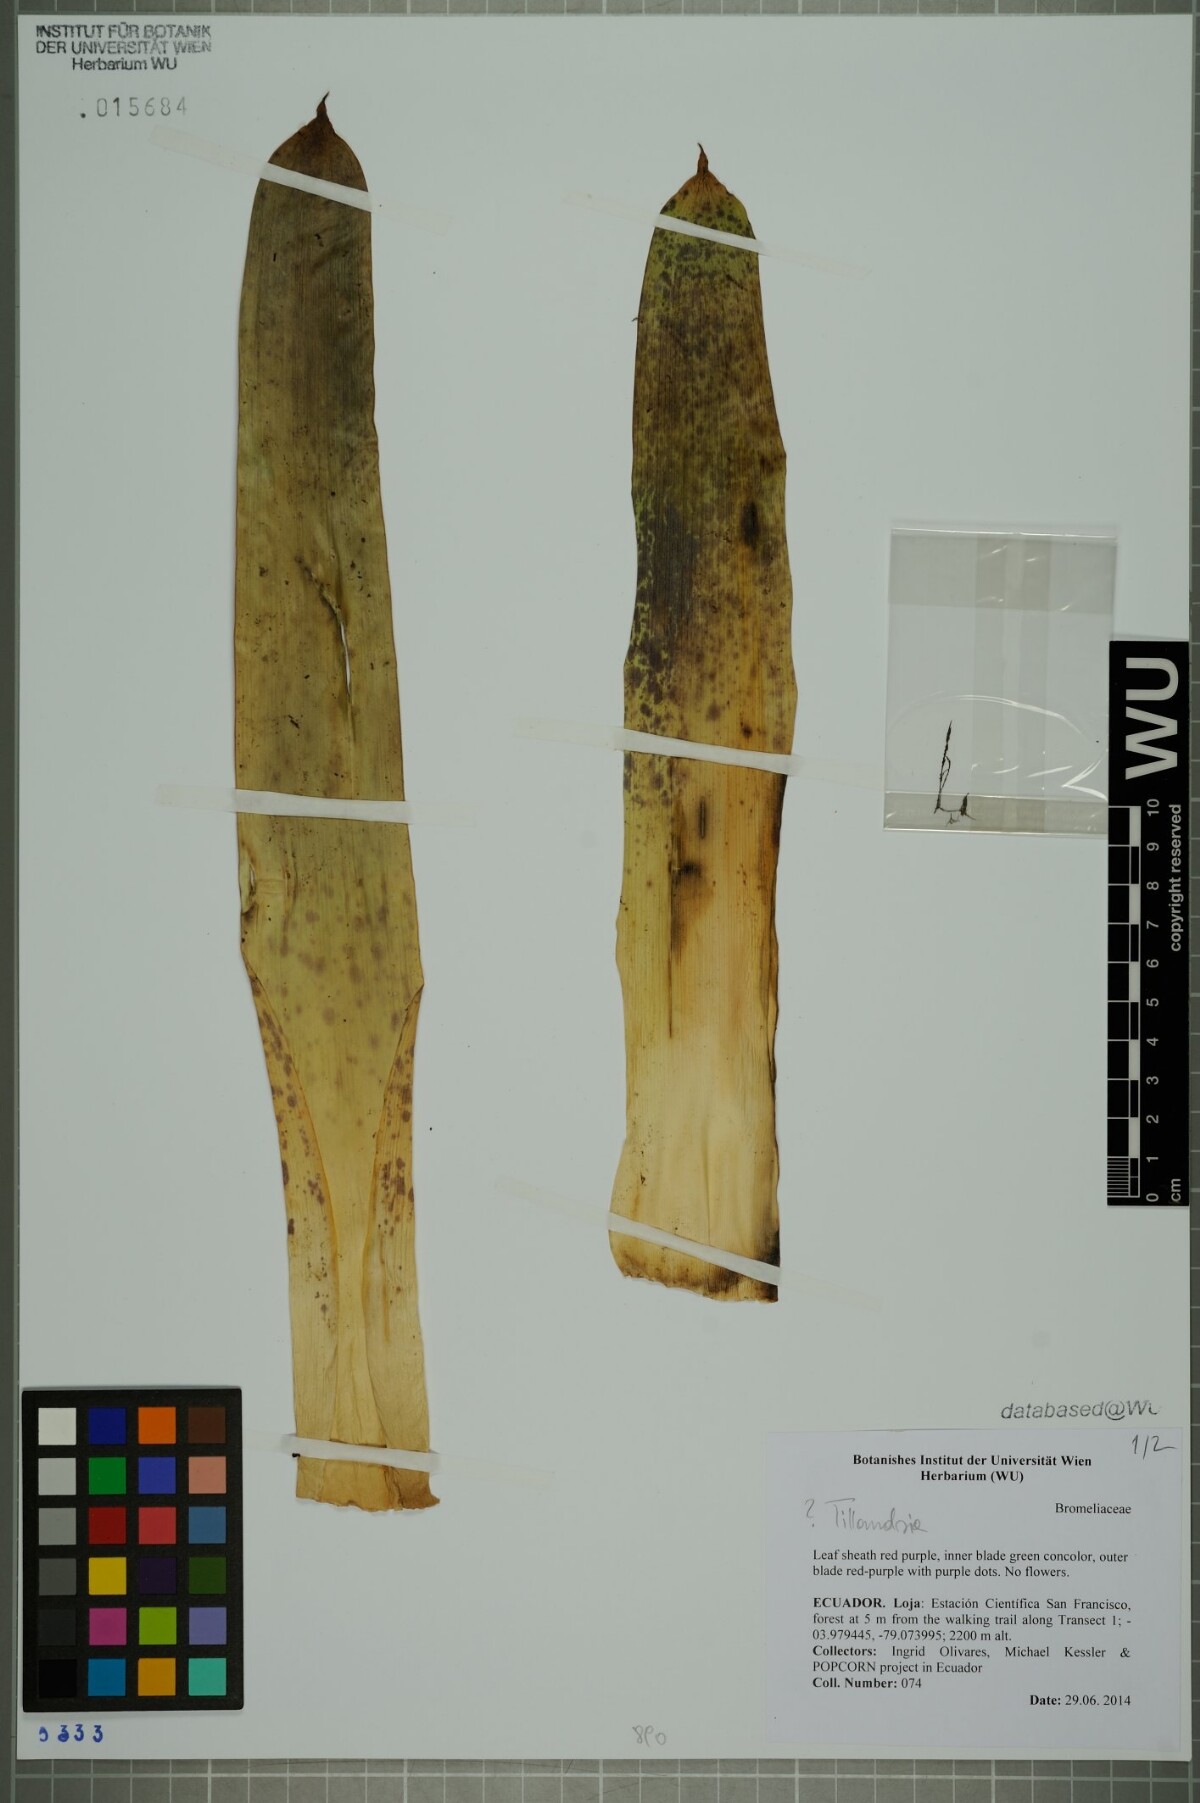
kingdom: Plantae
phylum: Tracheophyta
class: Liliopsida
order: Poales
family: Bromeliaceae
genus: Tillandsia
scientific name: Tillandsia
